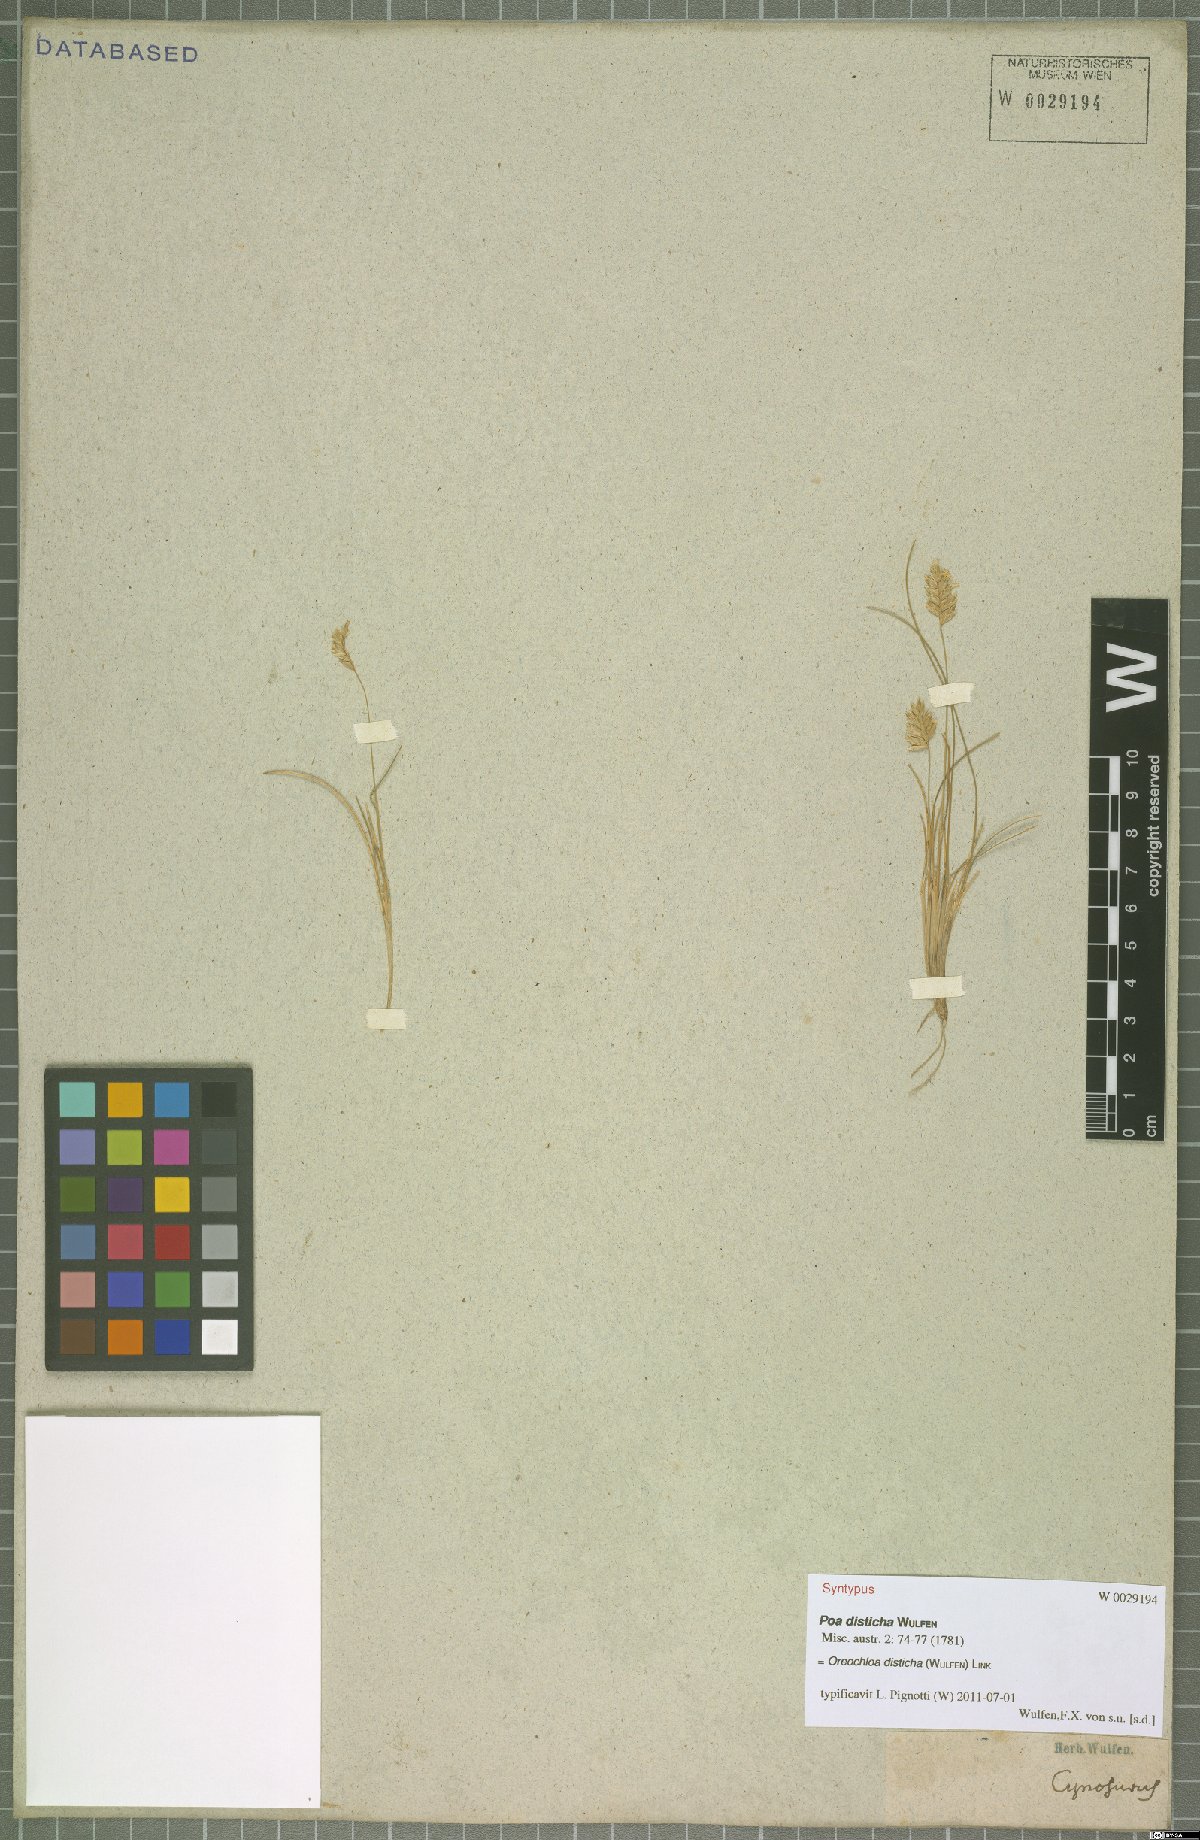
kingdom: Plantae
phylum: Tracheophyta
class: Liliopsida
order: Poales
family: Poaceae
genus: Oreochloa
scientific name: Oreochloa disticha
